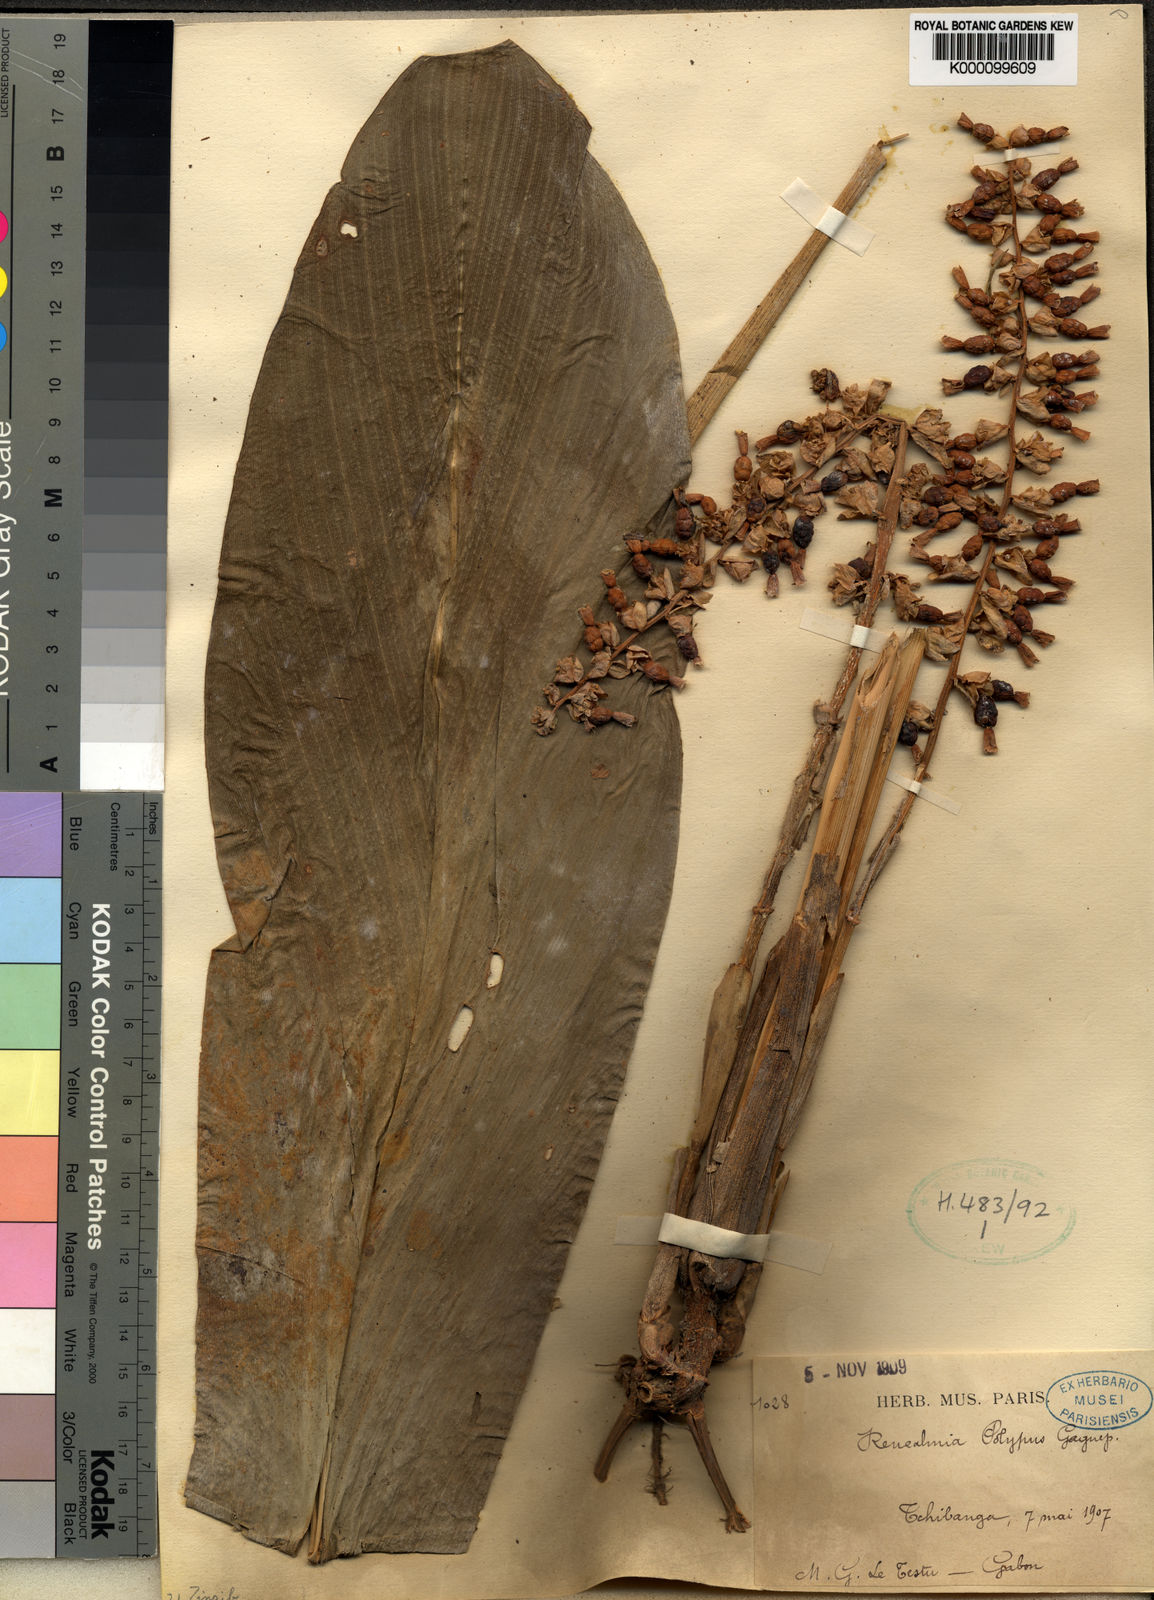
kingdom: Plantae
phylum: Tracheophyta
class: Liliopsida
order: Zingiberales
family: Zingiberaceae
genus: Renealmia
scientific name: Renealmia polypus
